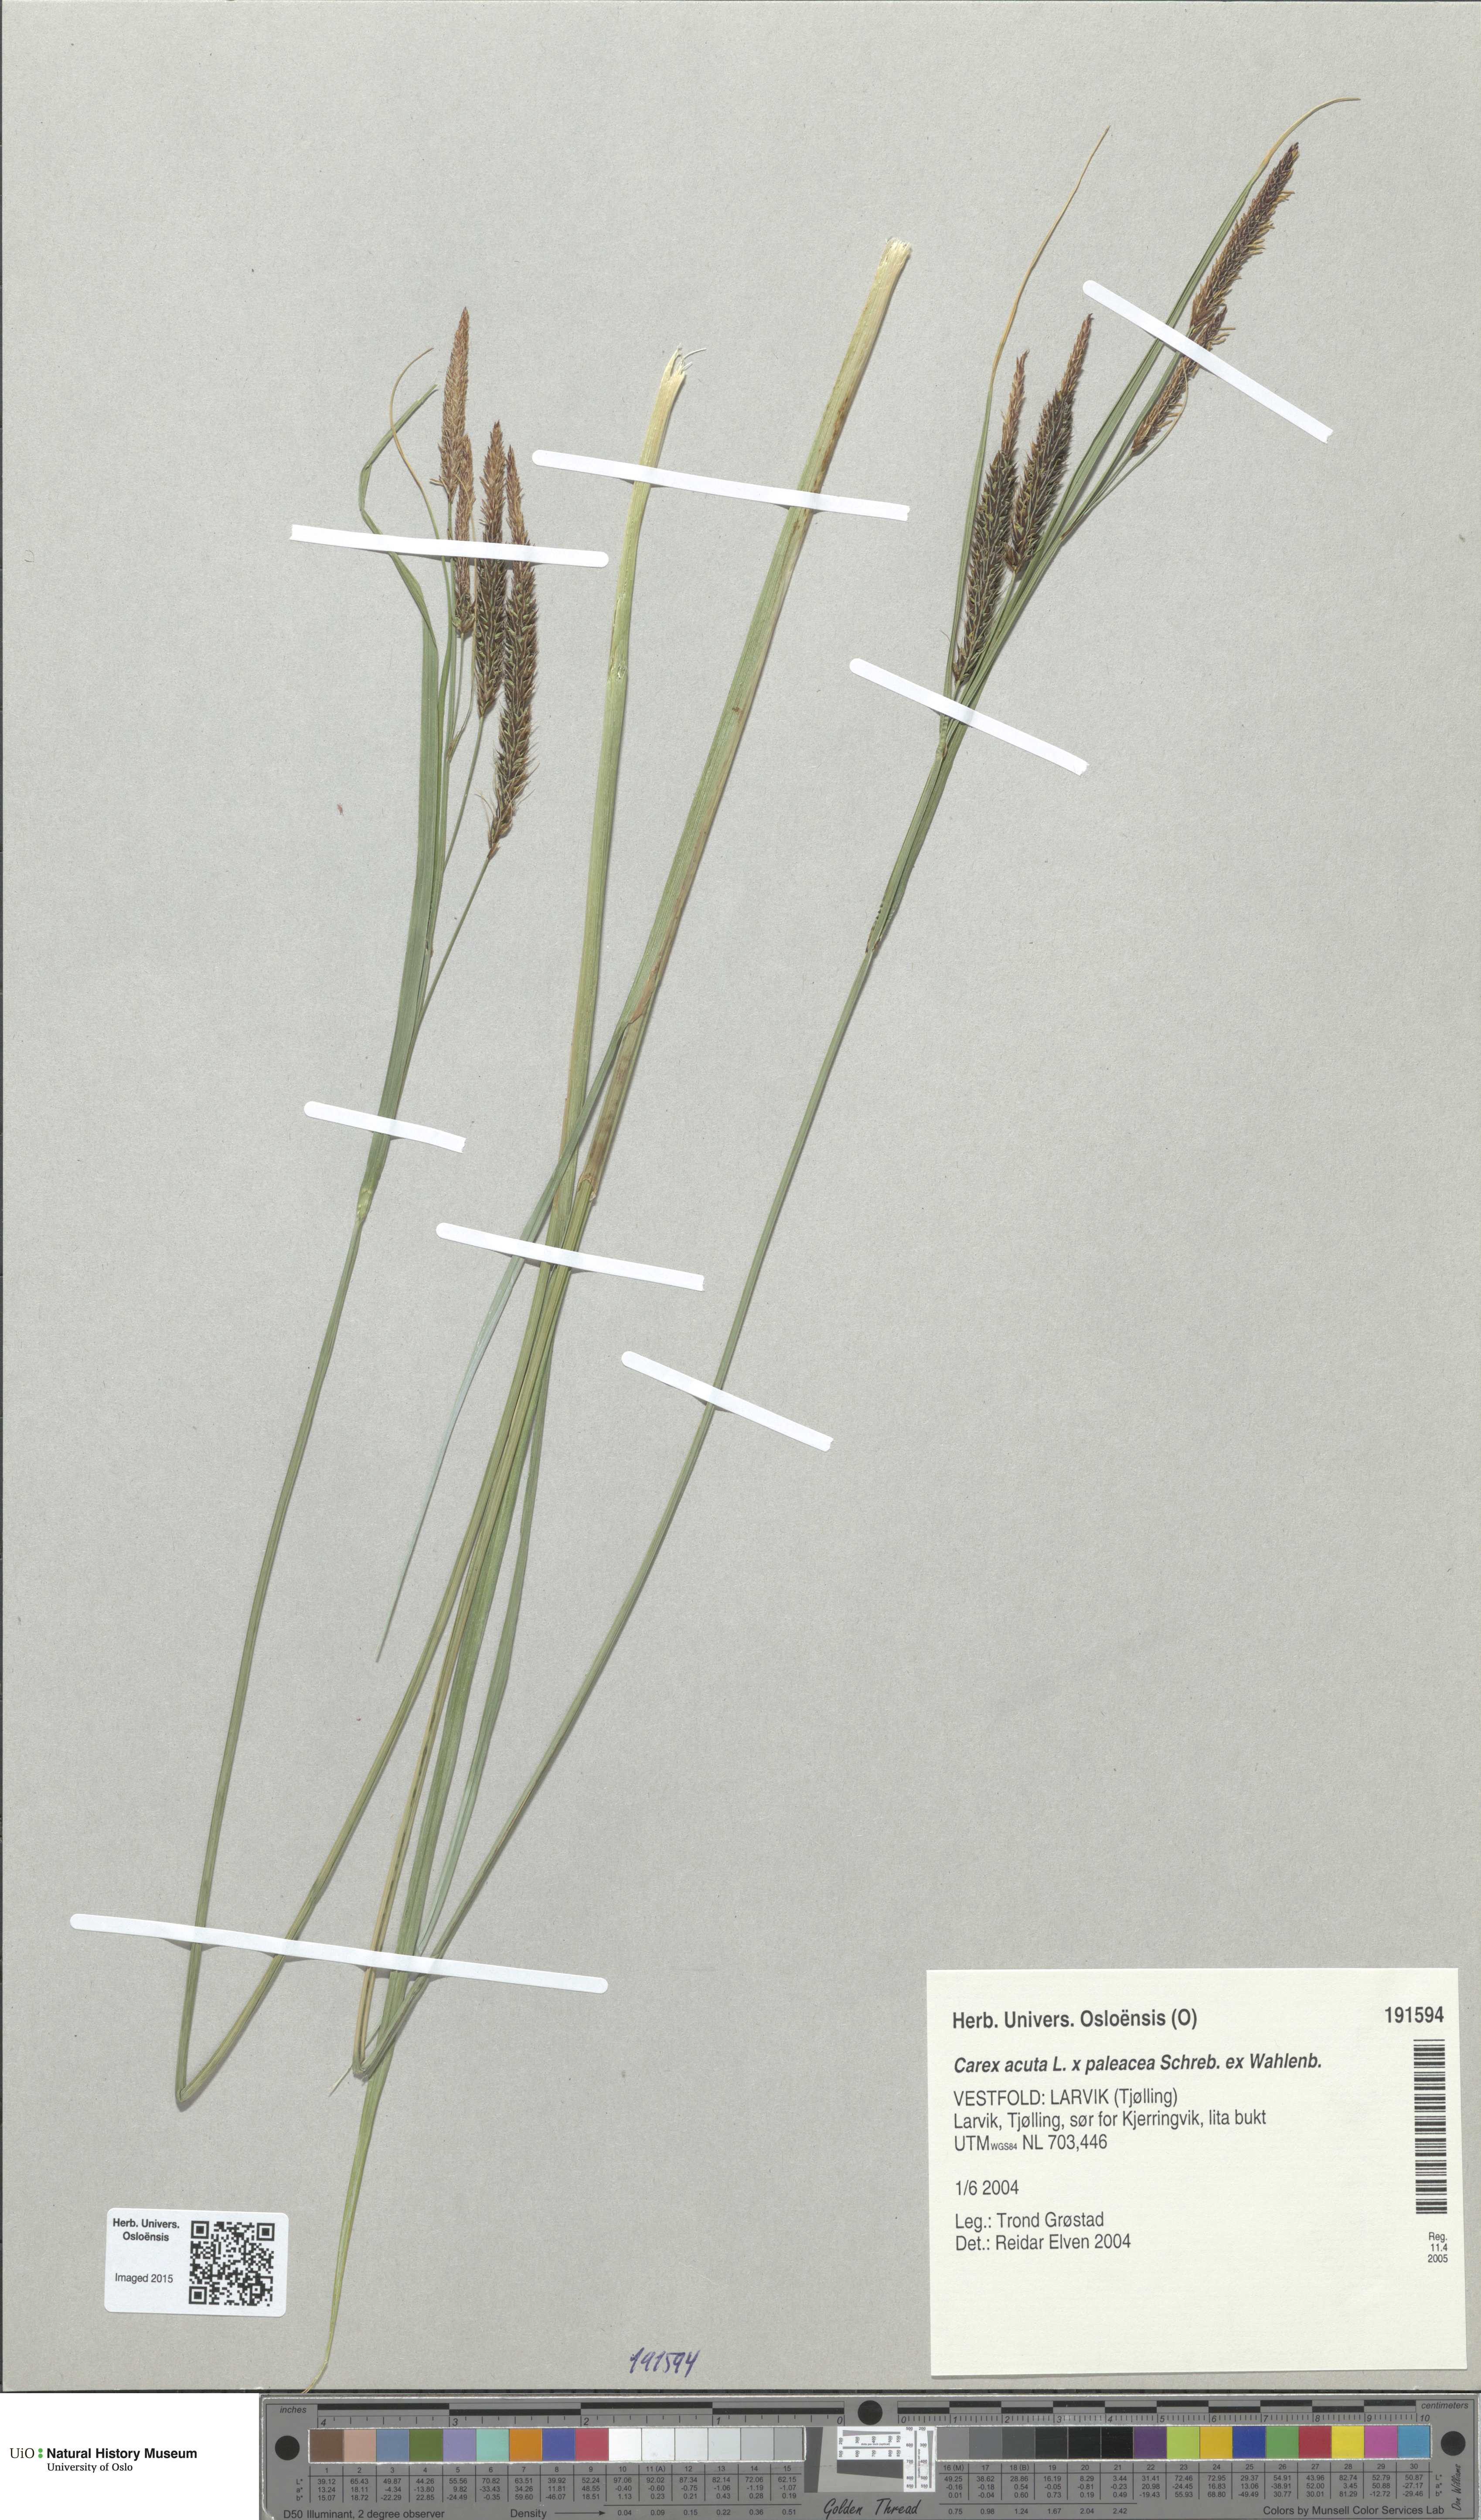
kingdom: Plantae
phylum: Tracheophyta
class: Liliopsida
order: Poales
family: Cyperaceae
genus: Carex
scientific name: Carex
